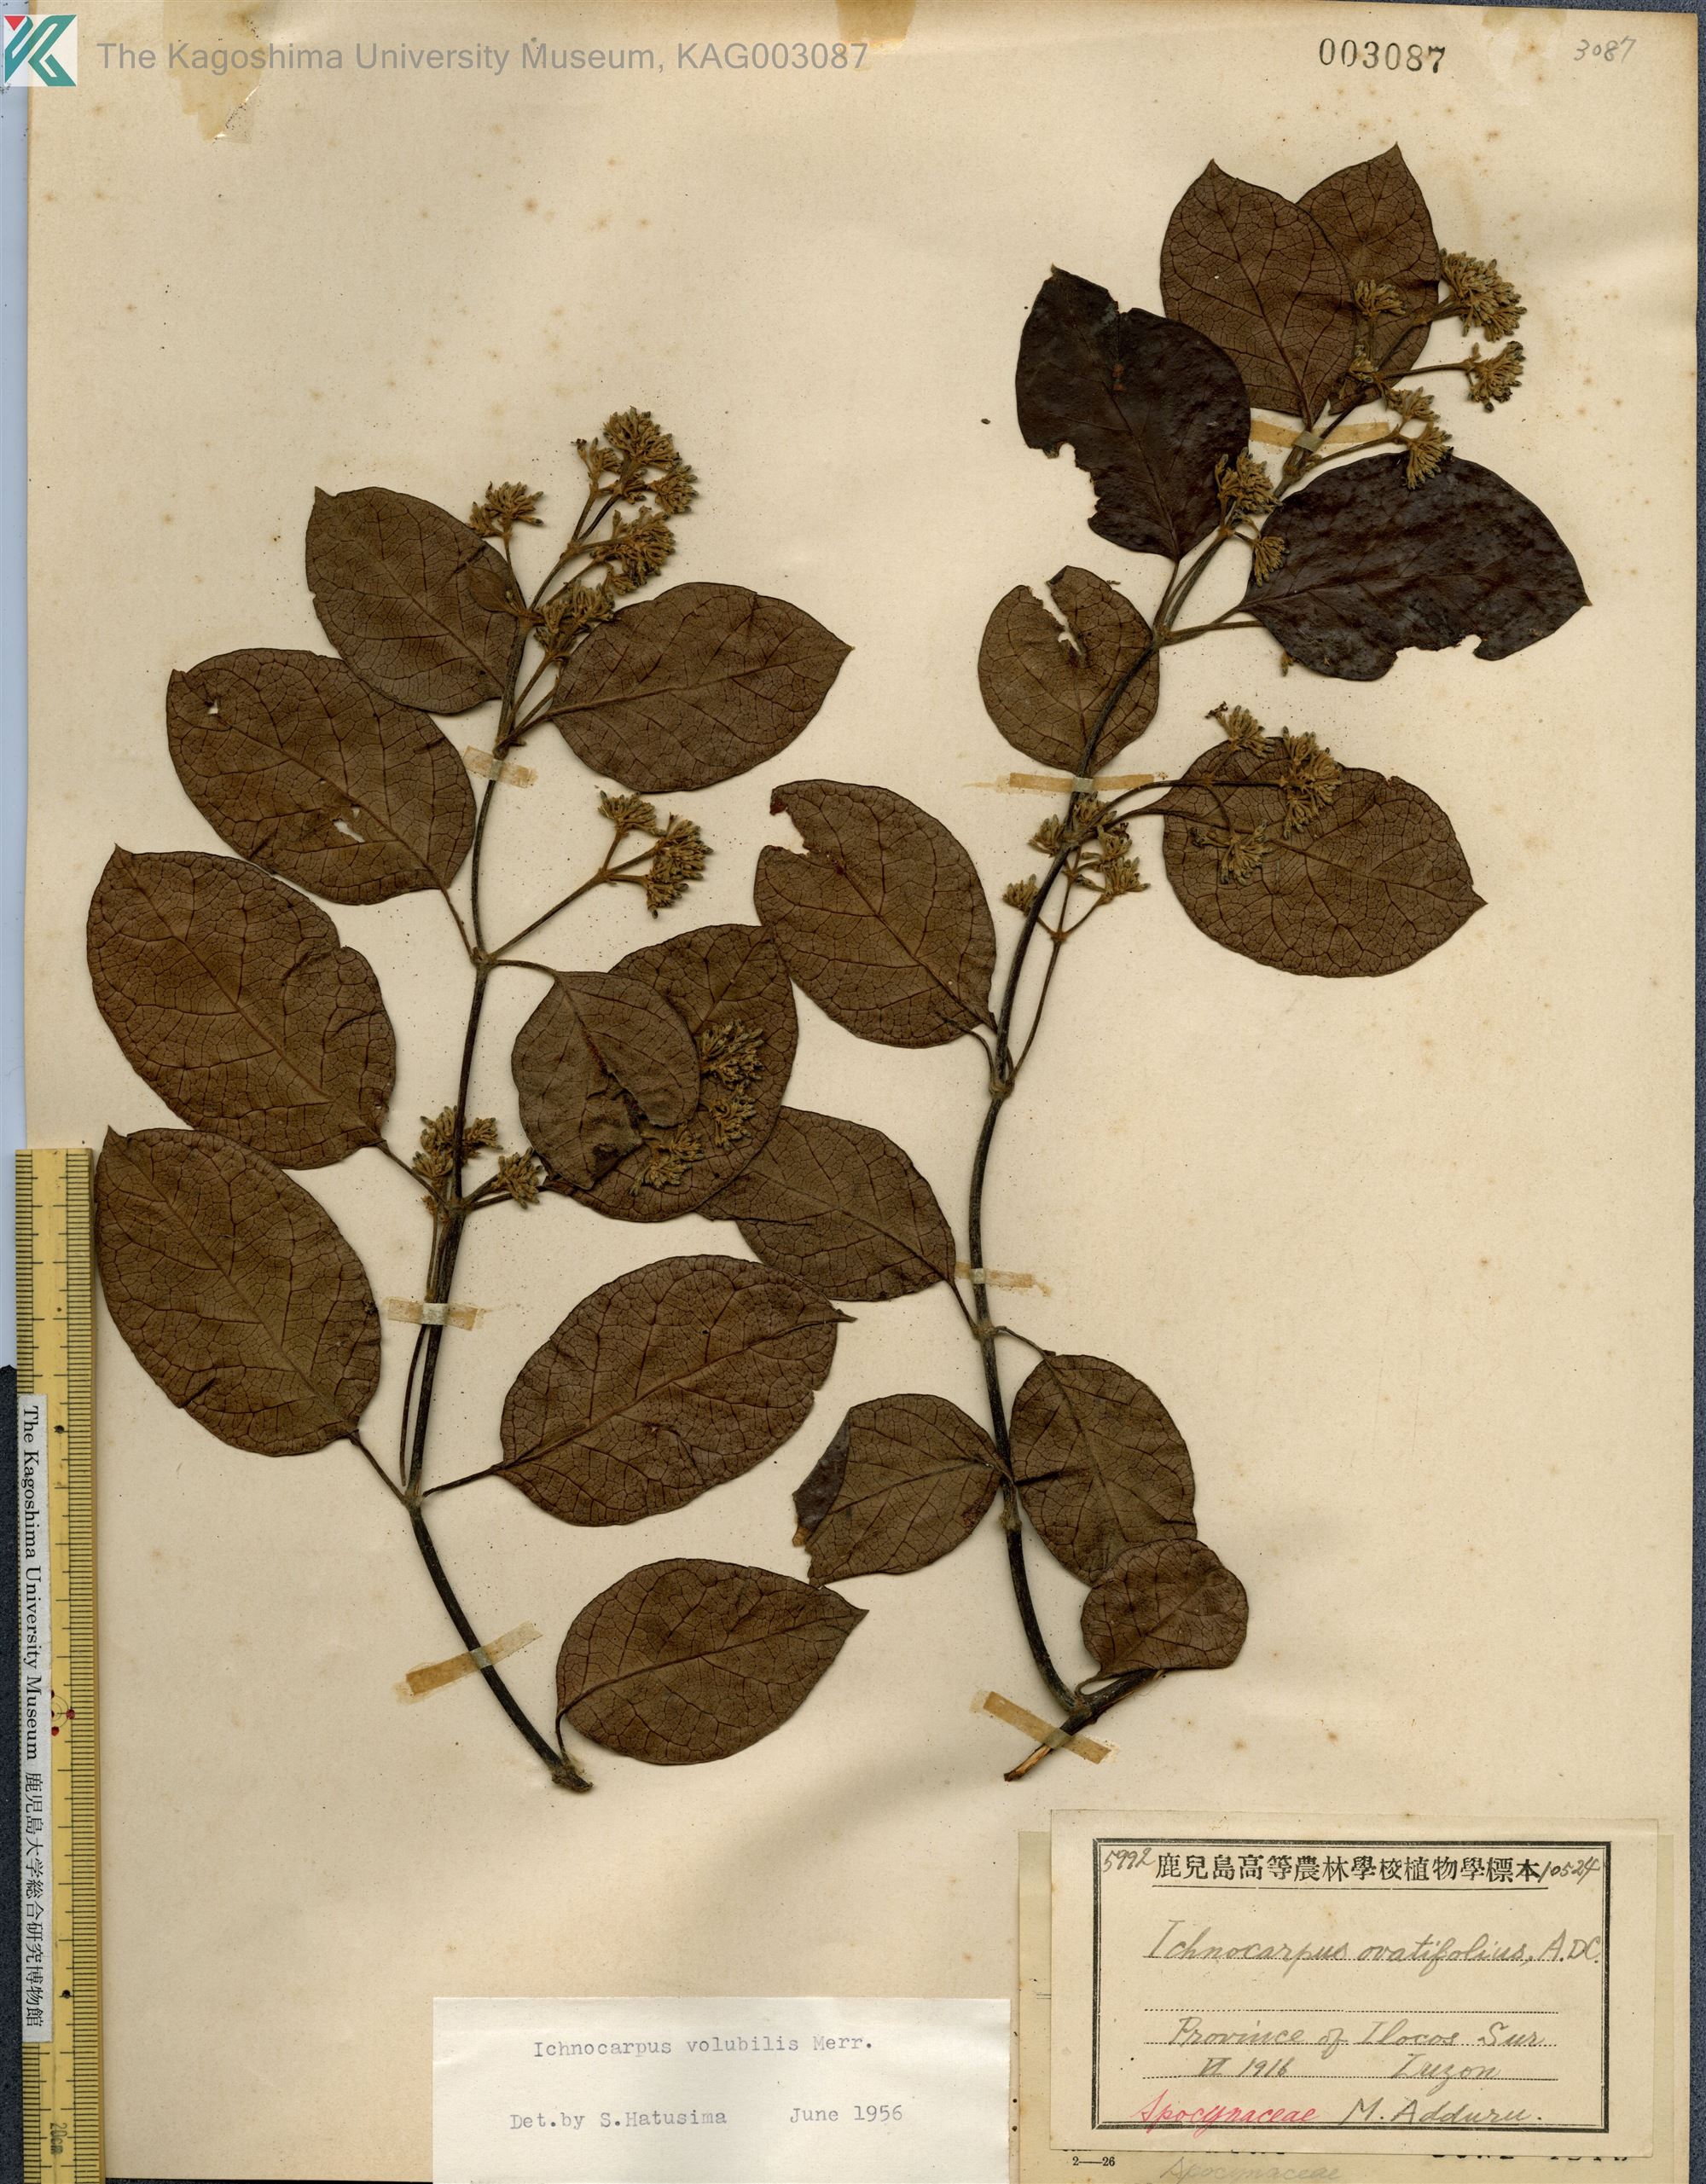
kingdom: Plantae
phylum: Tracheophyta
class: Magnoliopsida
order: Gentianales
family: Apocynaceae
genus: Ichnocarpus
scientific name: Ichnocarpus frutescens
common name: Ichnocarpus
